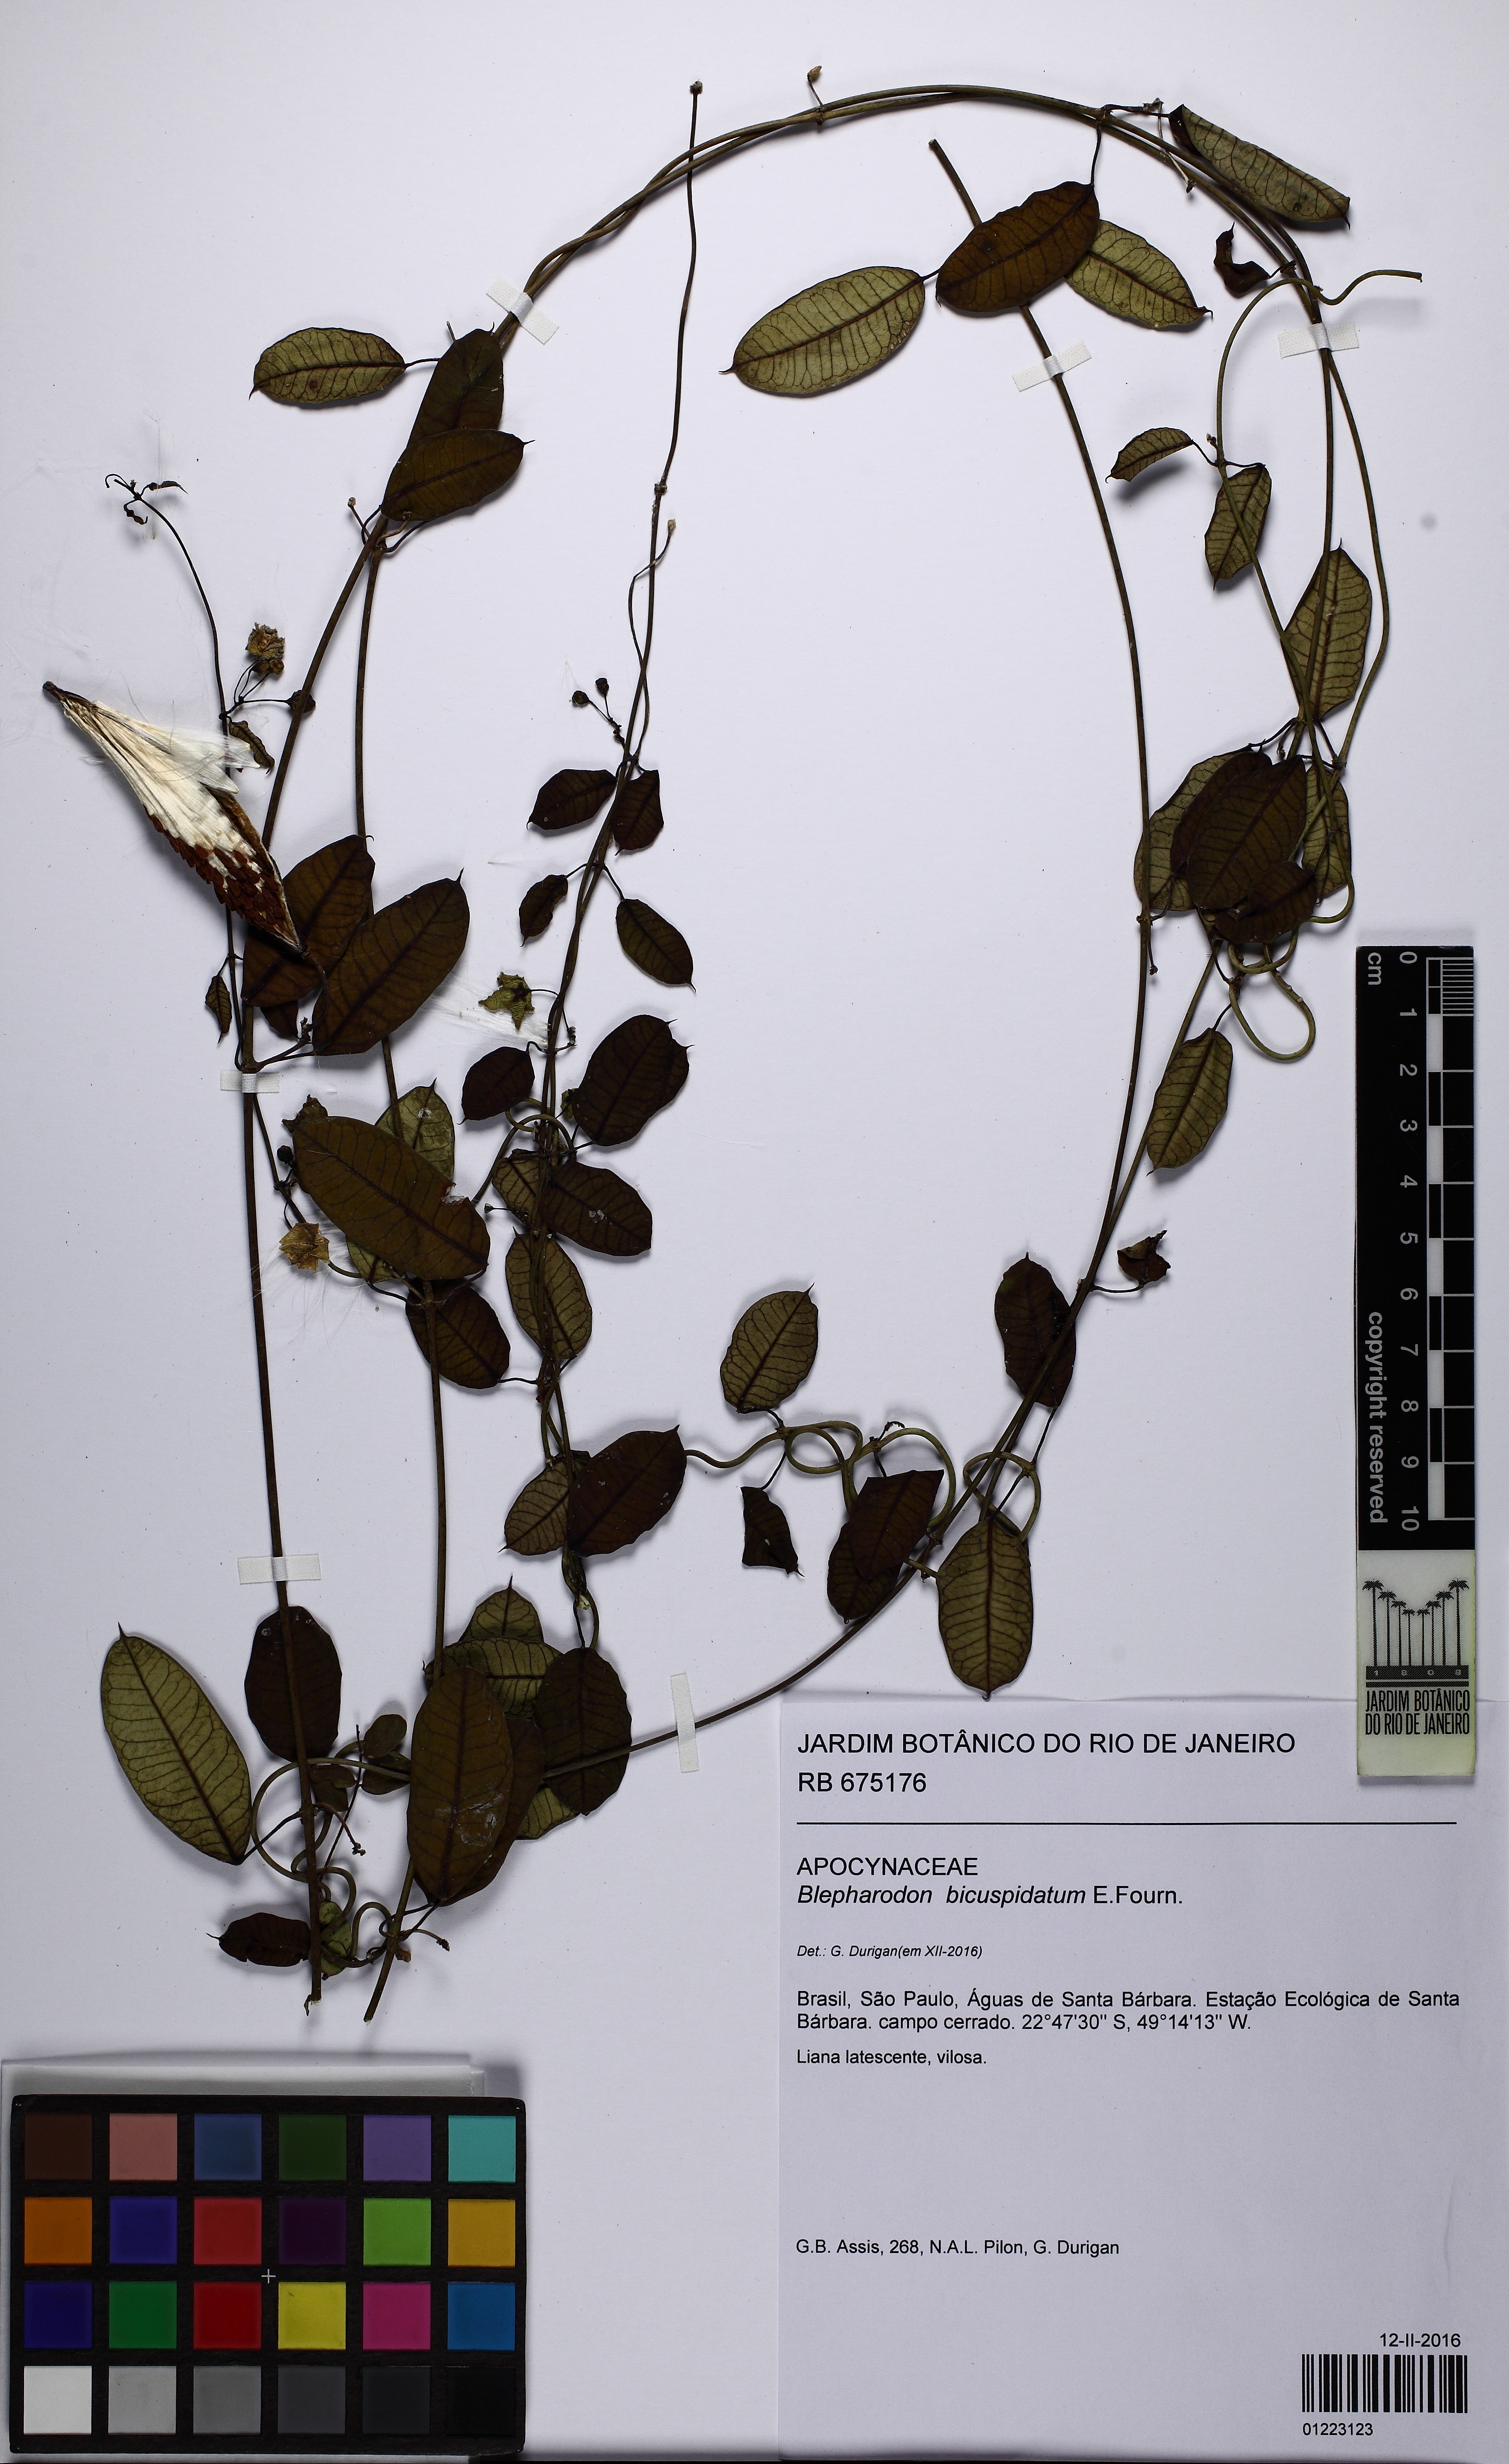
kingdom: Plantae
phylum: Tracheophyta
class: Magnoliopsida
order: Gentianales
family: Apocynaceae
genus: Blepharodon
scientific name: Blepharodon bicuspidatum
